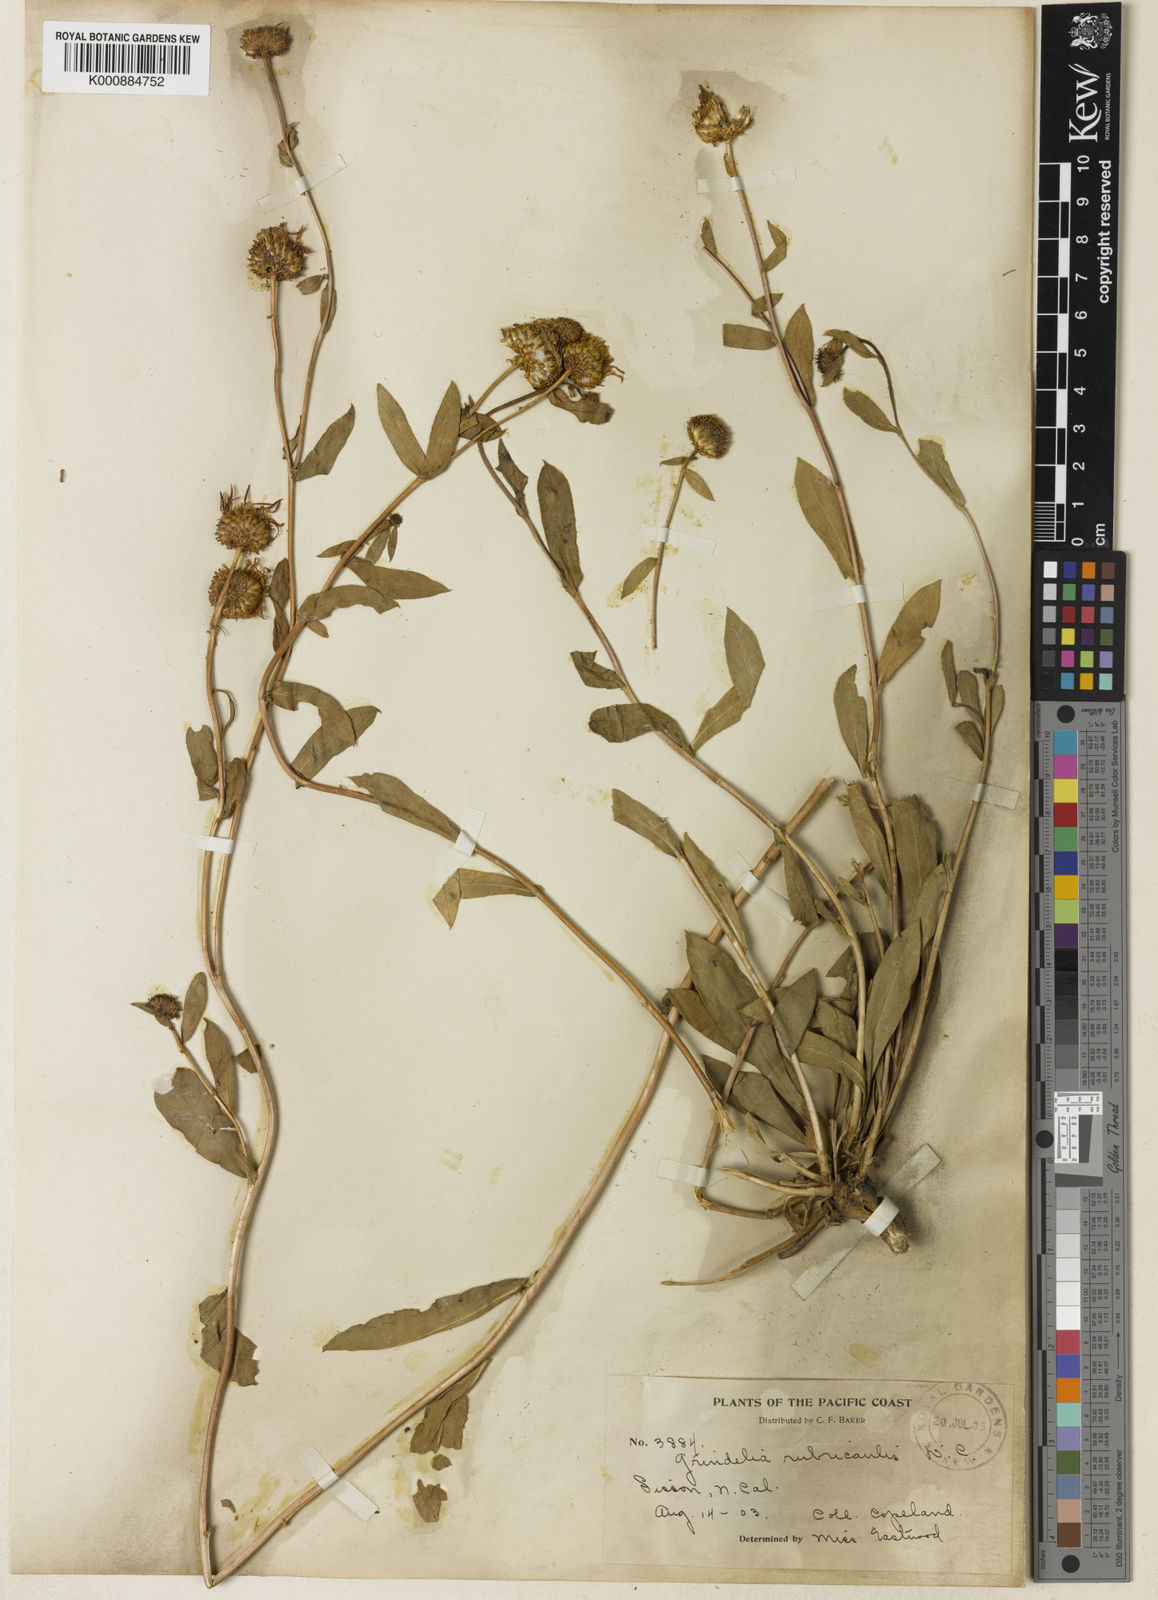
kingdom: Plantae
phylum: Tracheophyta
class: Magnoliopsida
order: Asterales
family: Asteraceae
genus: Grindelia
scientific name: Grindelia hirsutula
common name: Hairy gumweed
